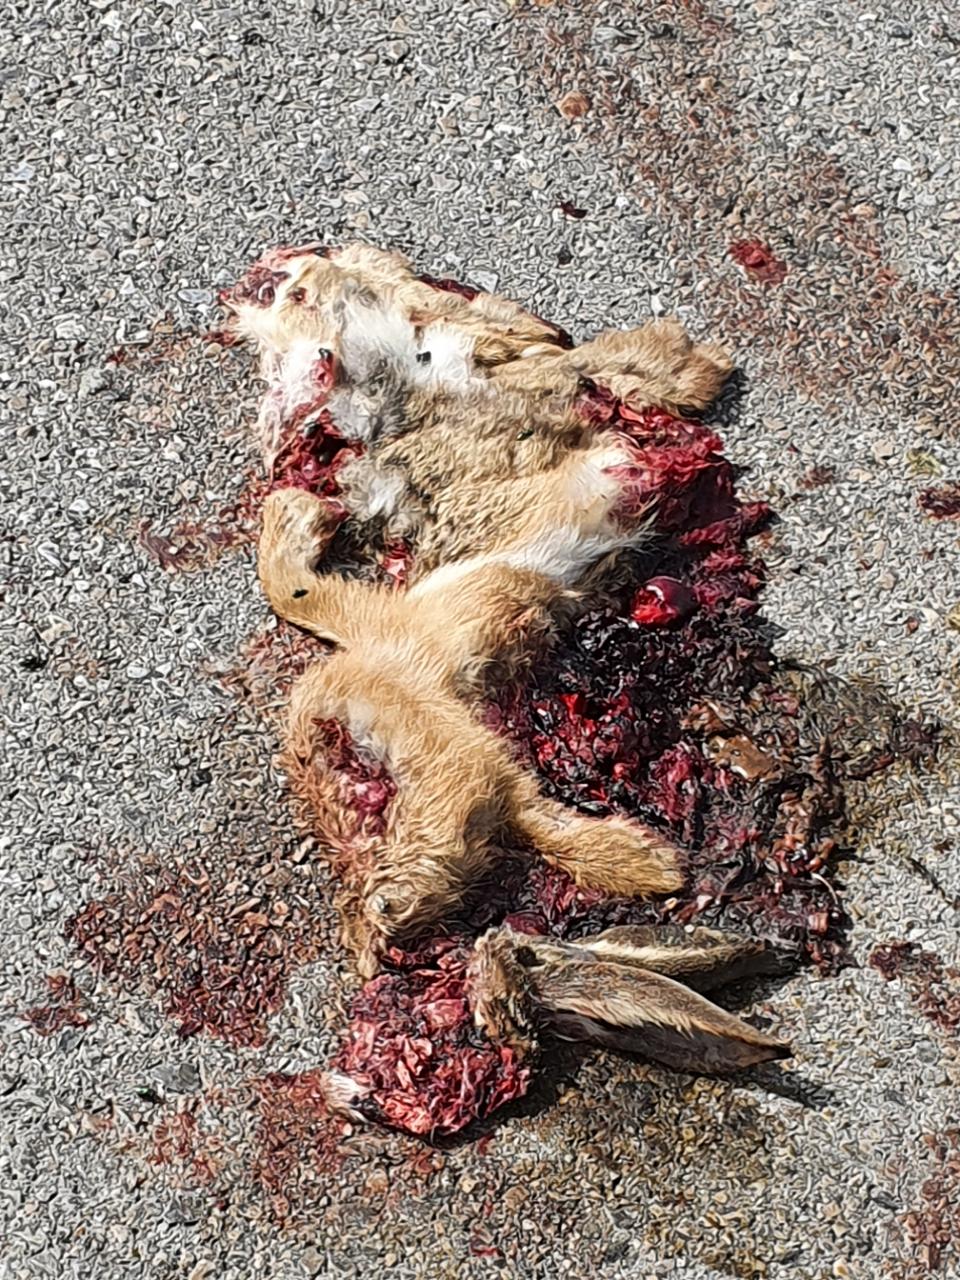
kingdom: Animalia
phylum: Chordata
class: Mammalia
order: Lagomorpha
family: Leporidae
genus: Lepus
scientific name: Lepus europaeus
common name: European hare
